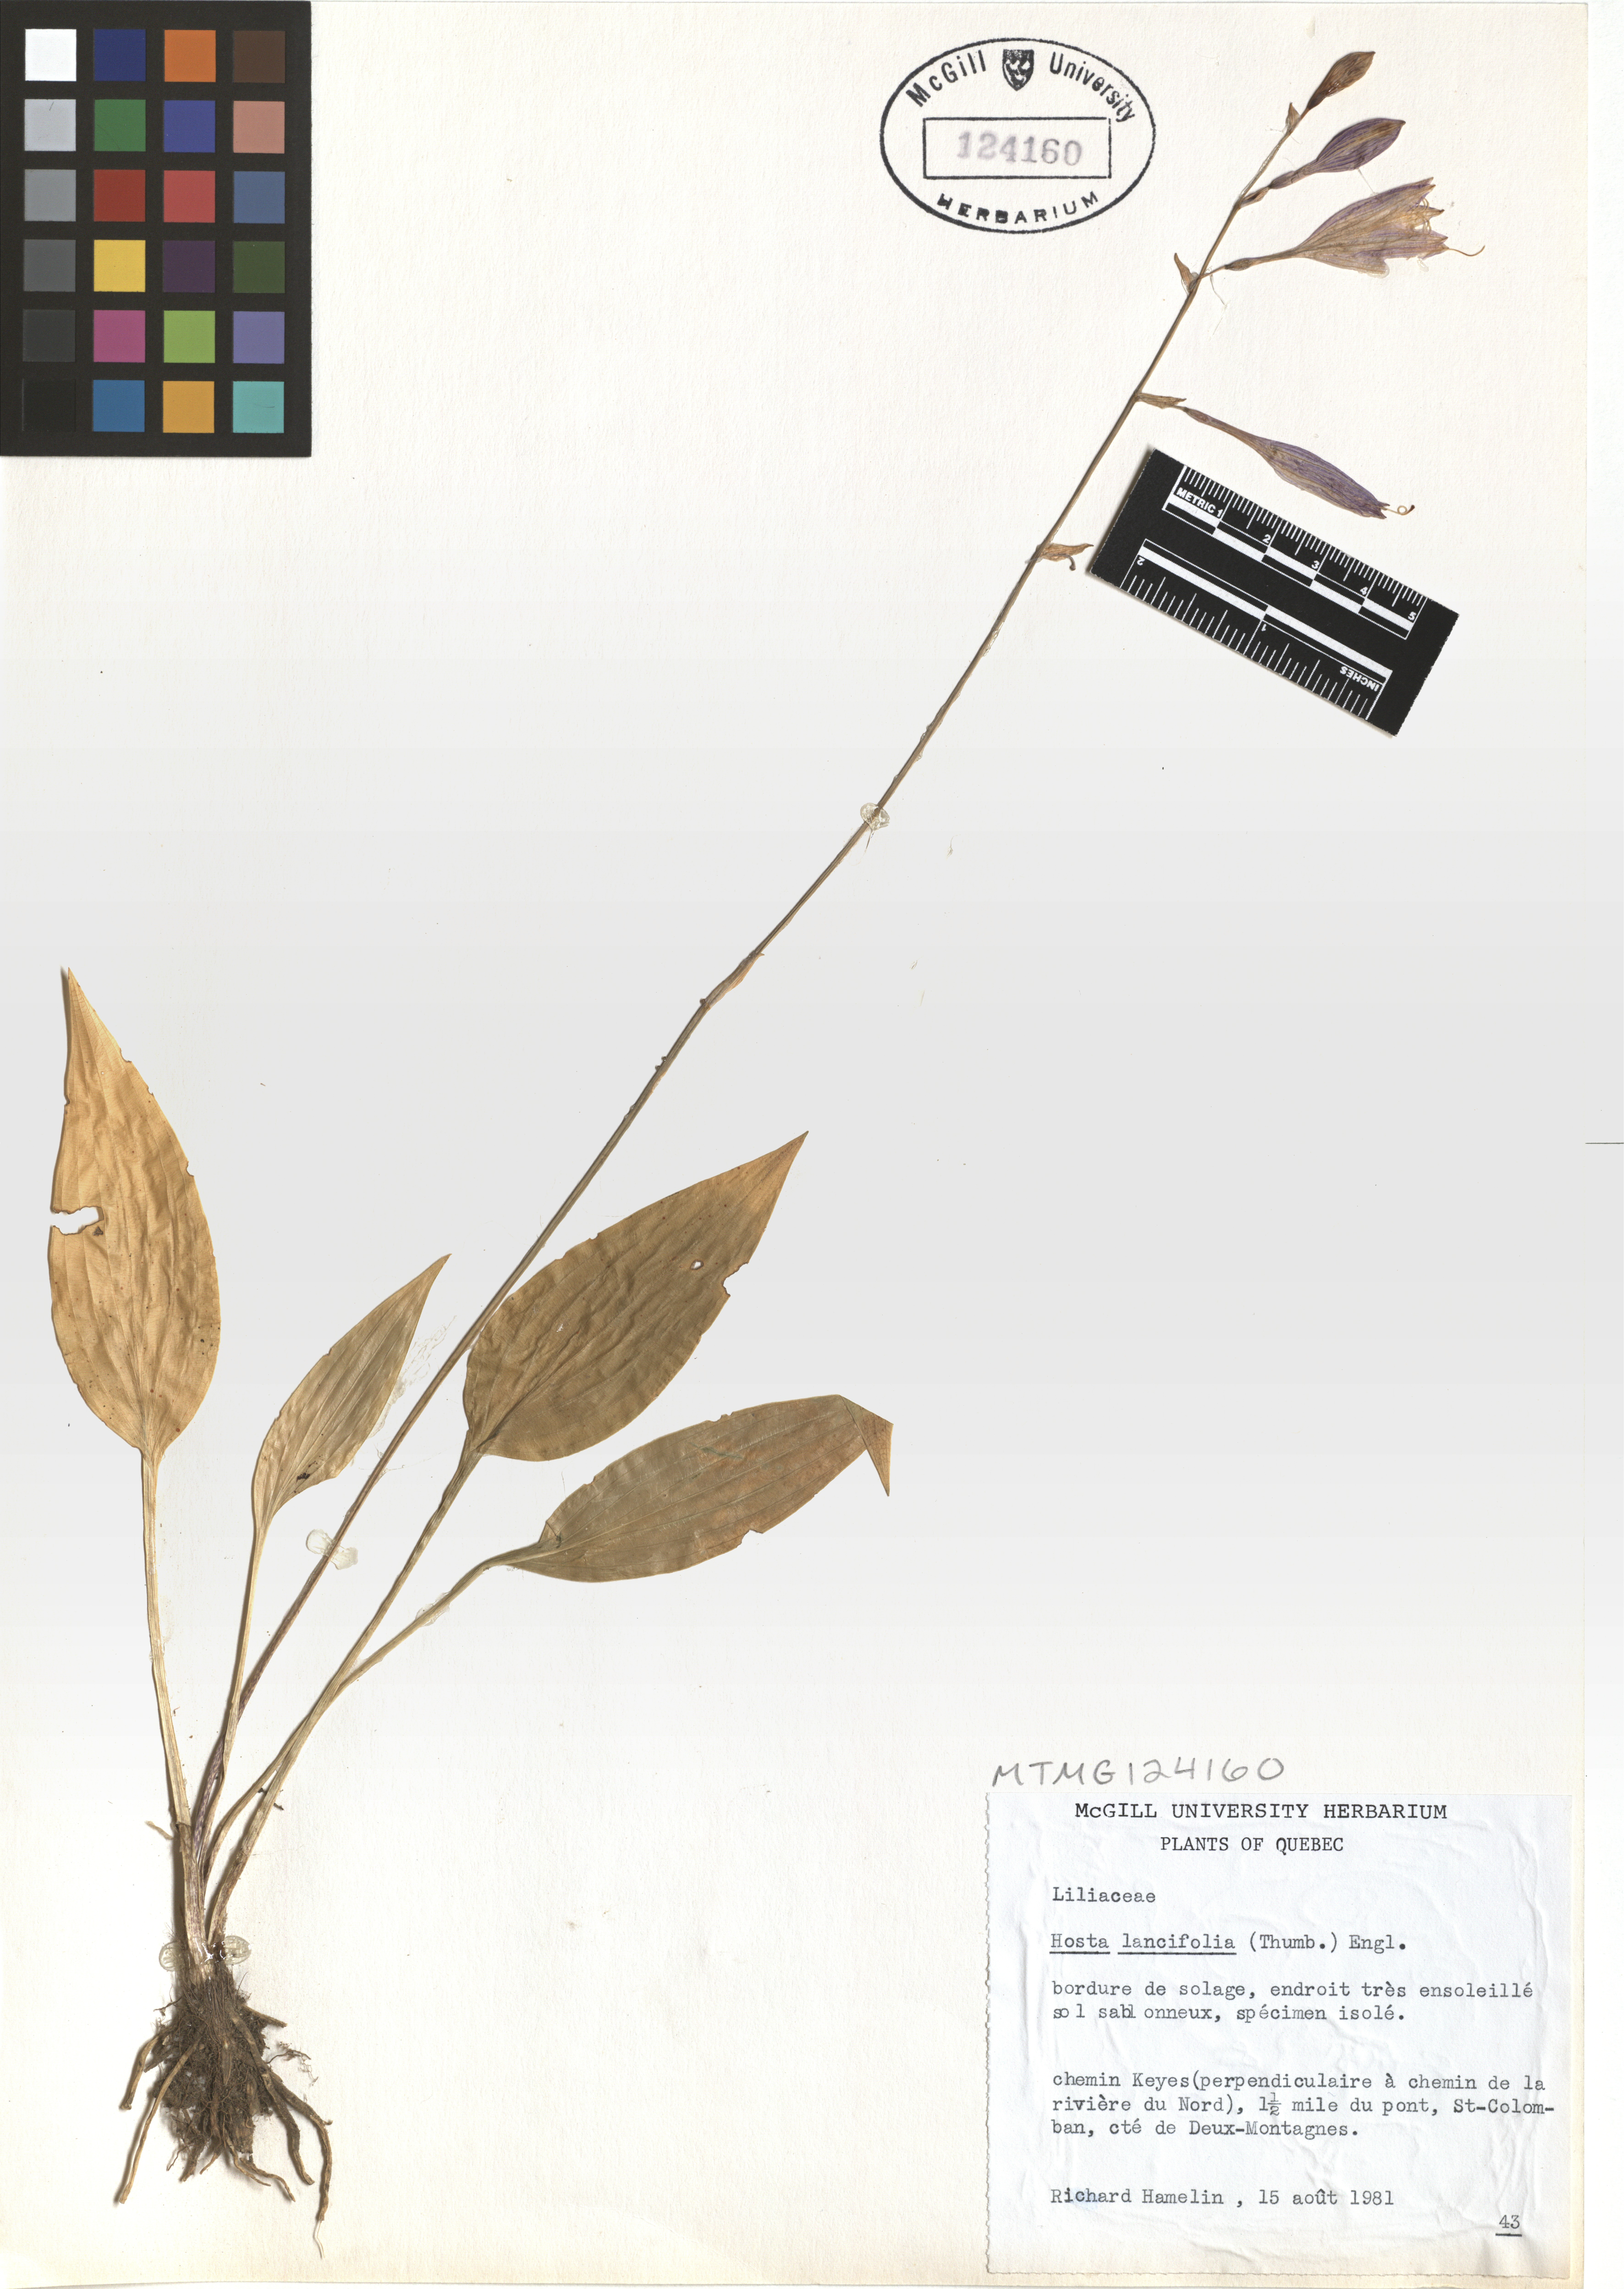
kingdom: Plantae
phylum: Tracheophyta
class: Liliopsida
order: Asparagales
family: Asparagaceae
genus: Hosta
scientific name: Hosta lancifolia
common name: Narrowleaf plantain lily
